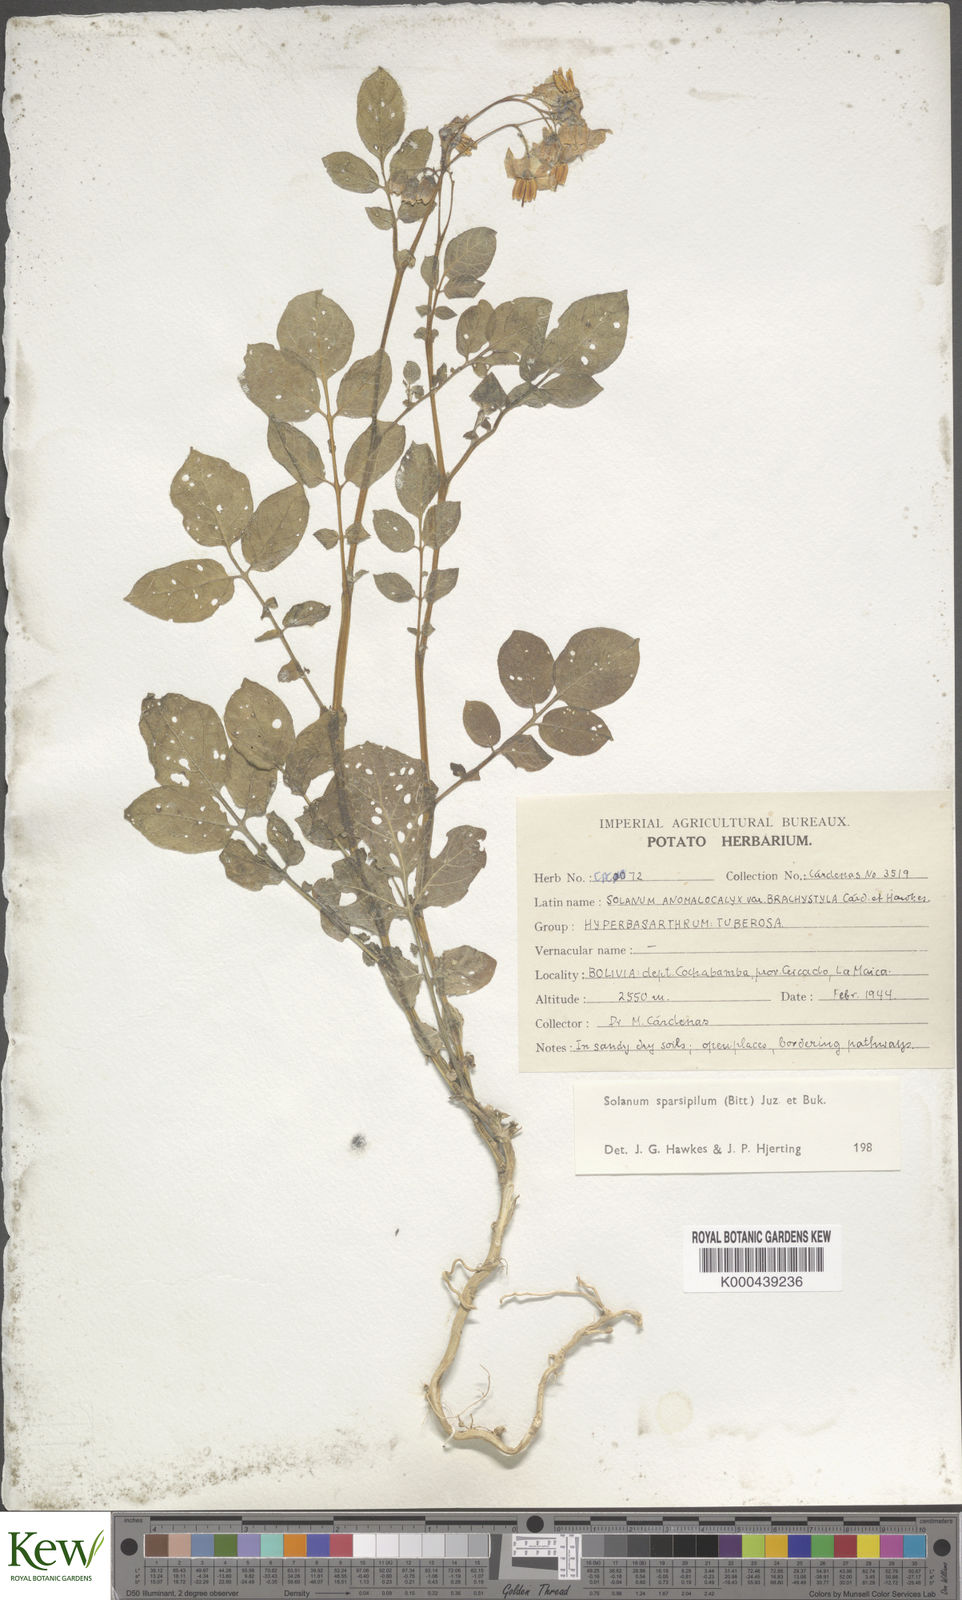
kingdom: Plantae
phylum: Tracheophyta
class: Magnoliopsida
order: Solanales
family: Solanaceae
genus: Solanum
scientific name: Solanum brevicaule
